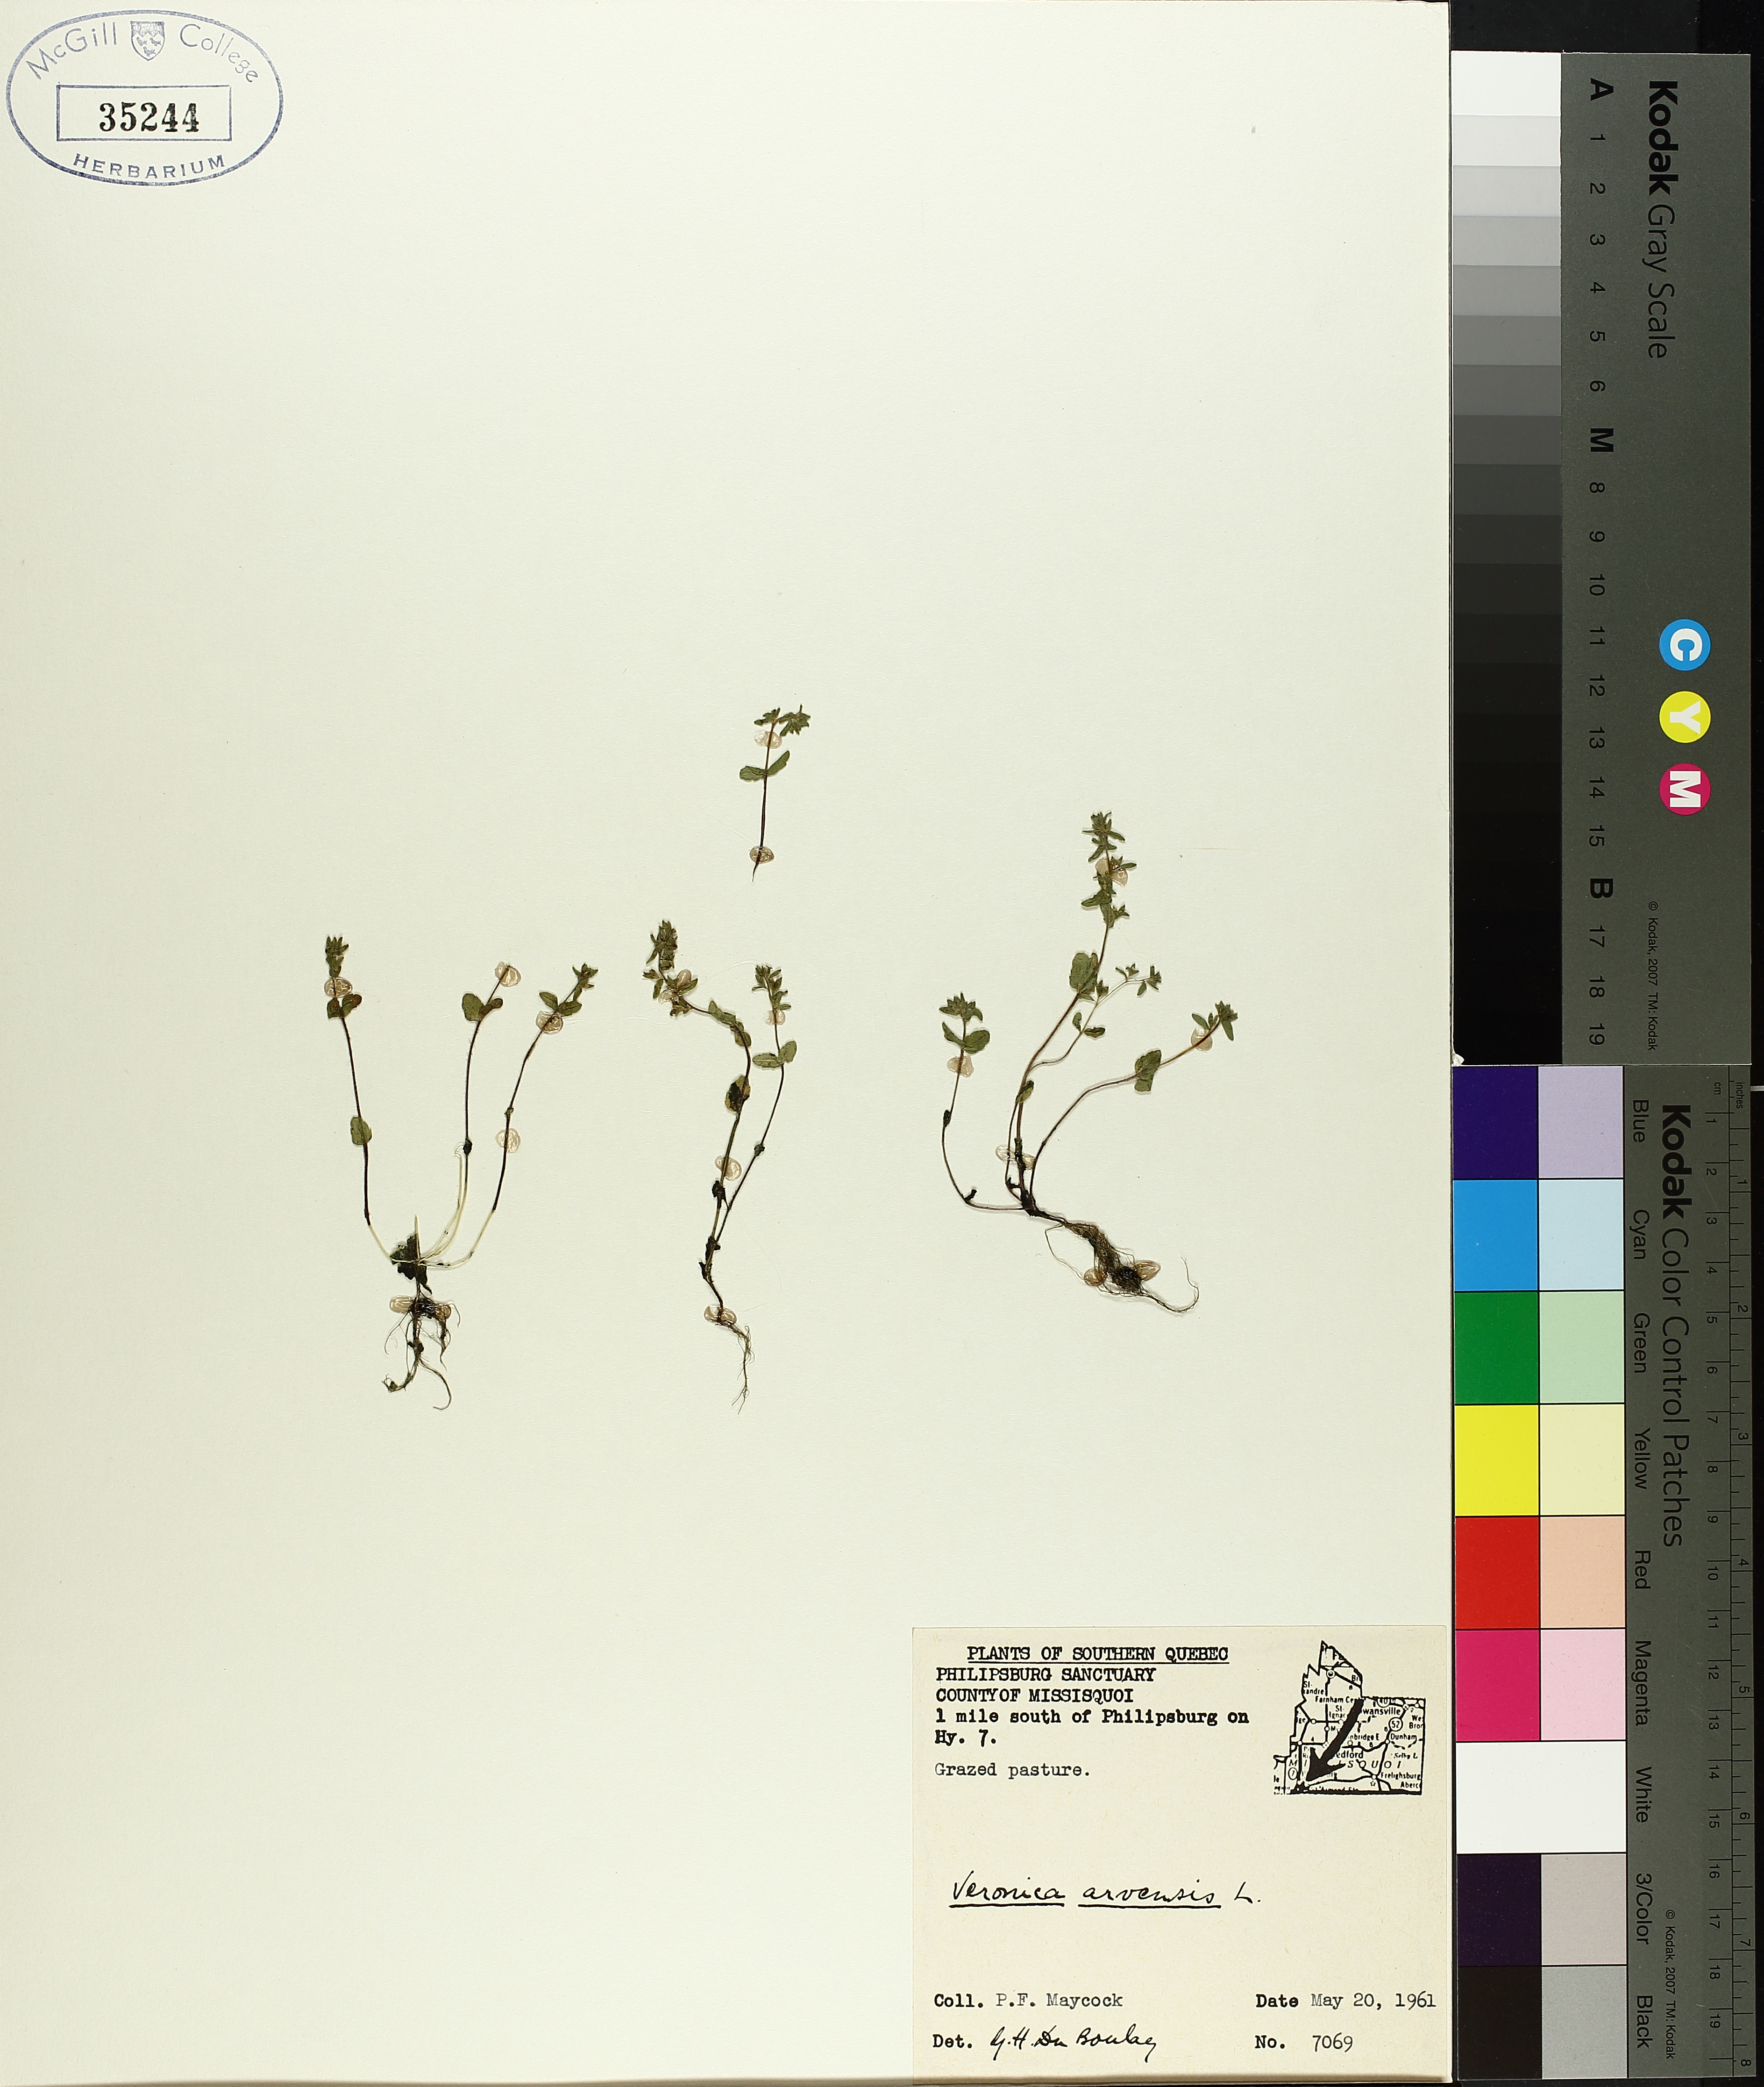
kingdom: Plantae
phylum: Tracheophyta
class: Magnoliopsida
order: Saxifragales
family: Grossulariaceae
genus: Ribes
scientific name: Ribes triste
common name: Swamp red currant
